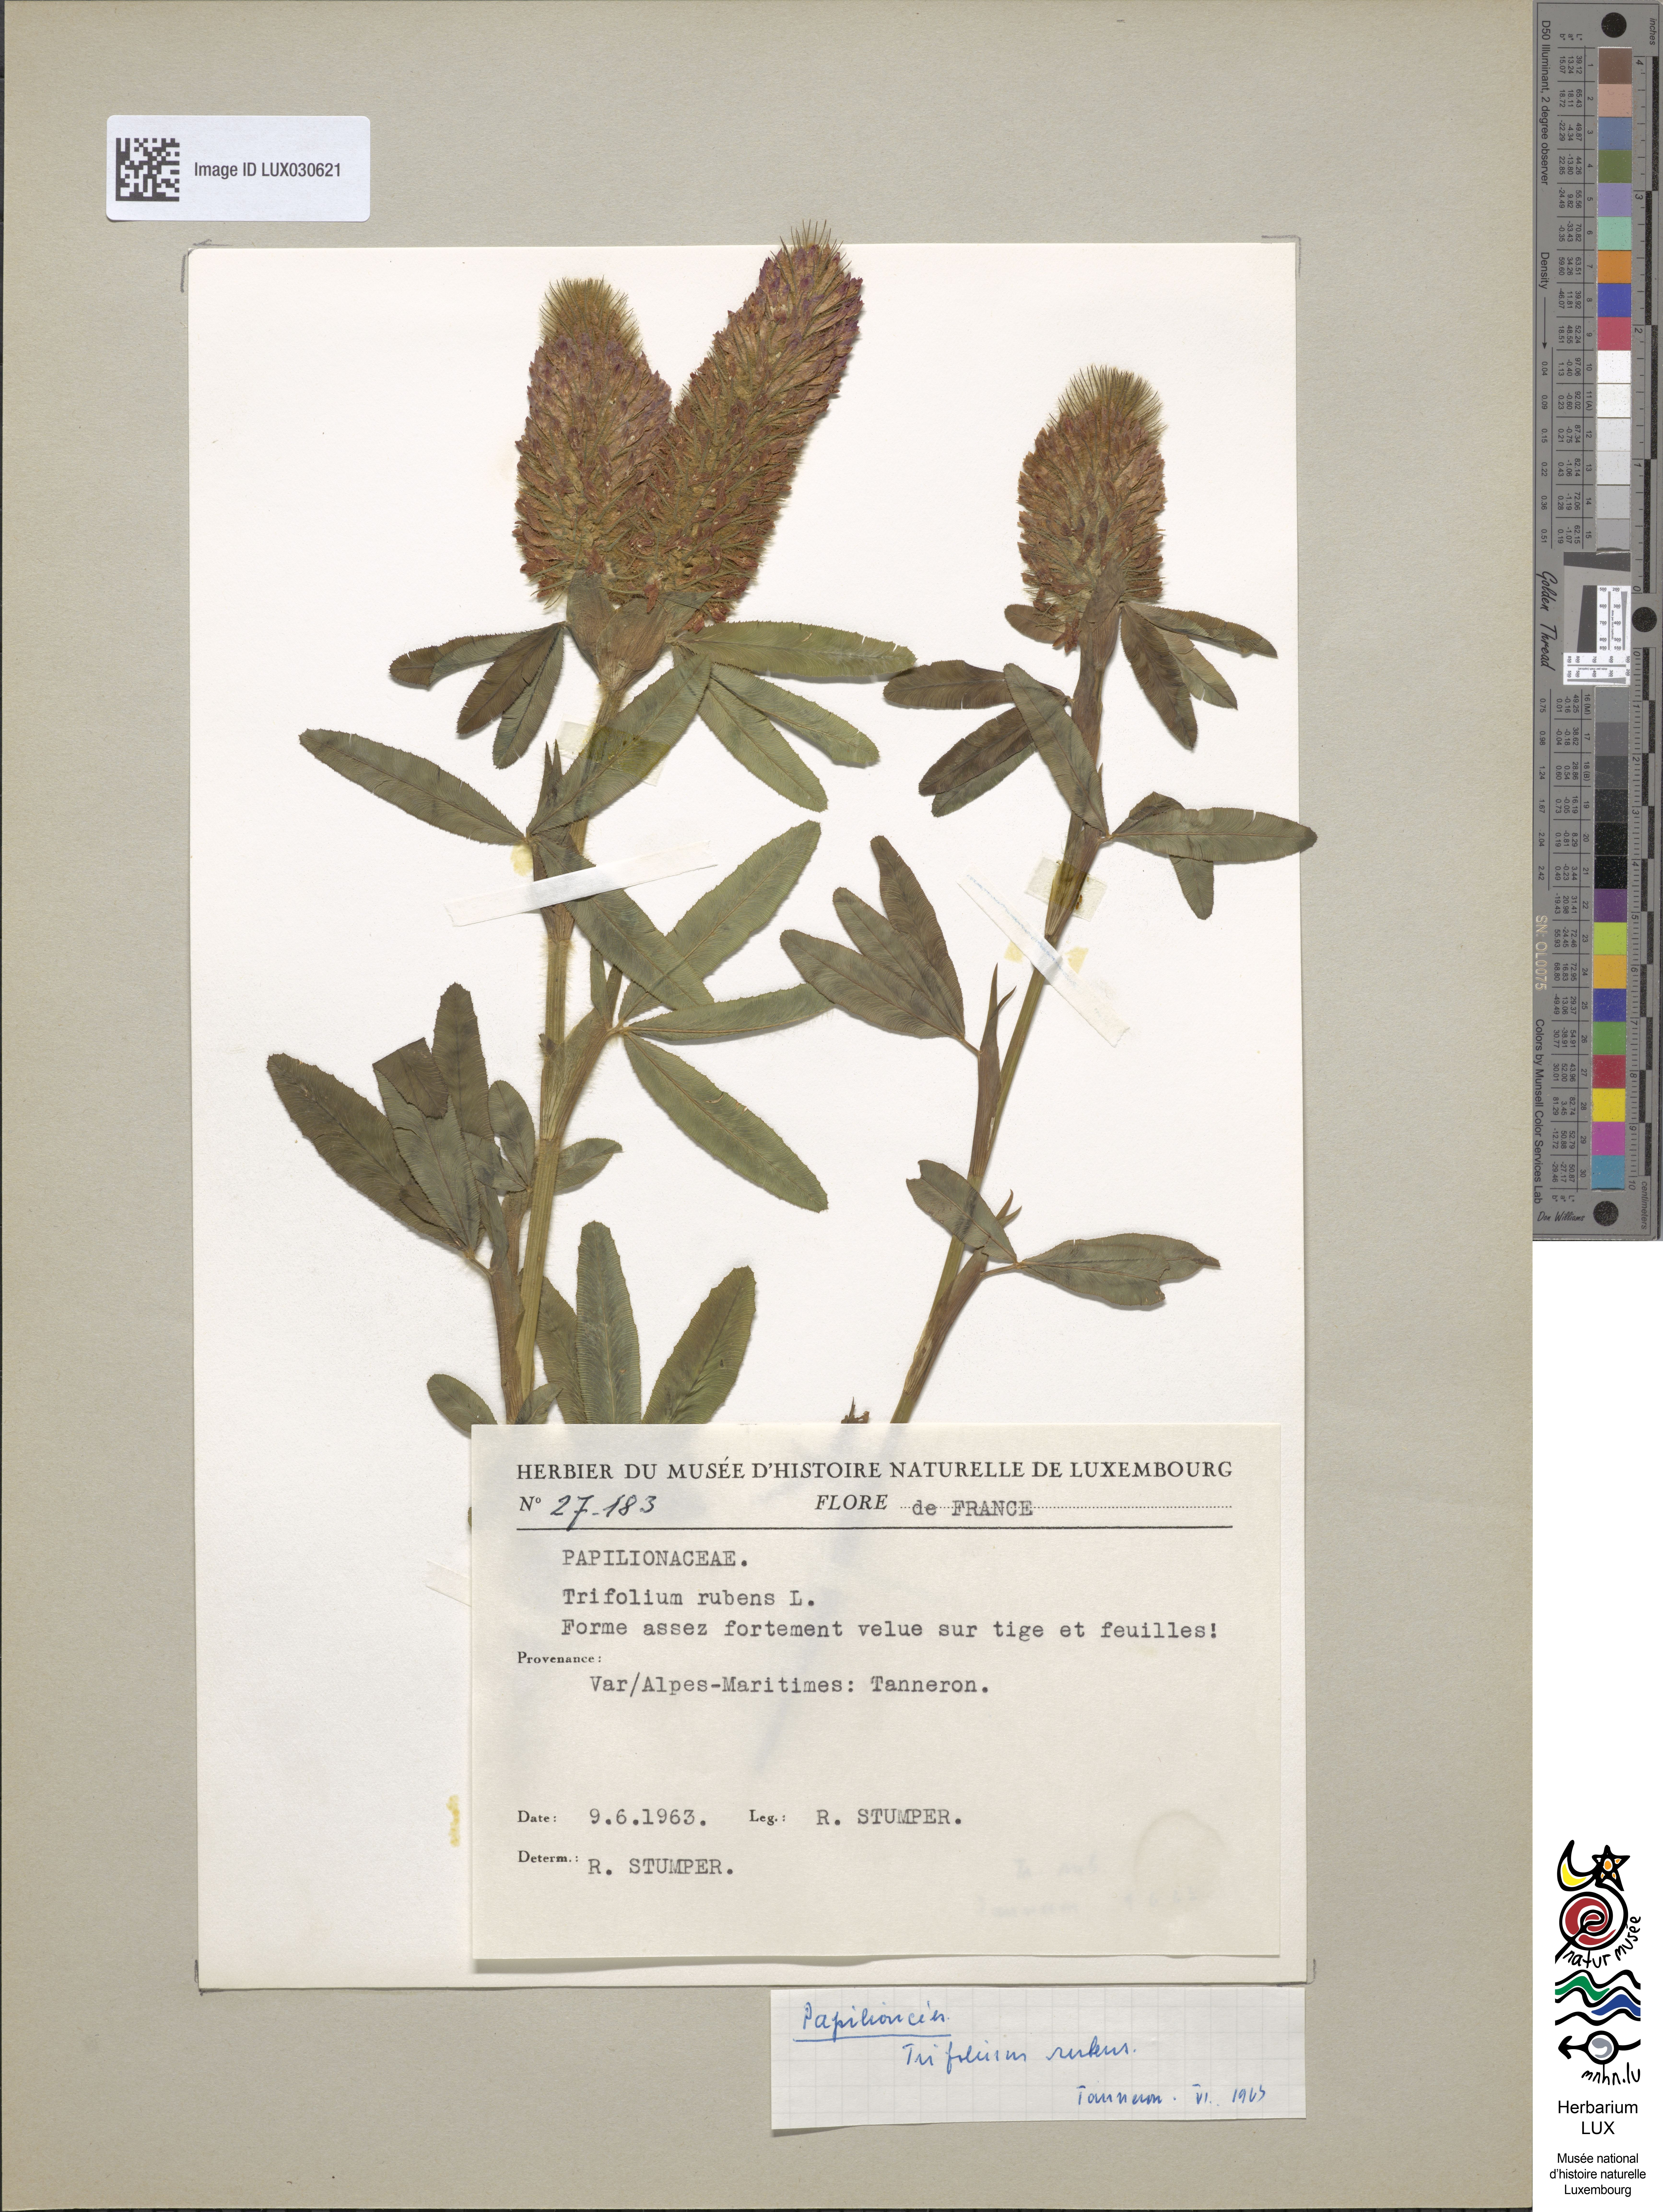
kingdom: Plantae
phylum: Tracheophyta
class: Magnoliopsida
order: Fabales
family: Fabaceae
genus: Trifolium
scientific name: Trifolium rubens
